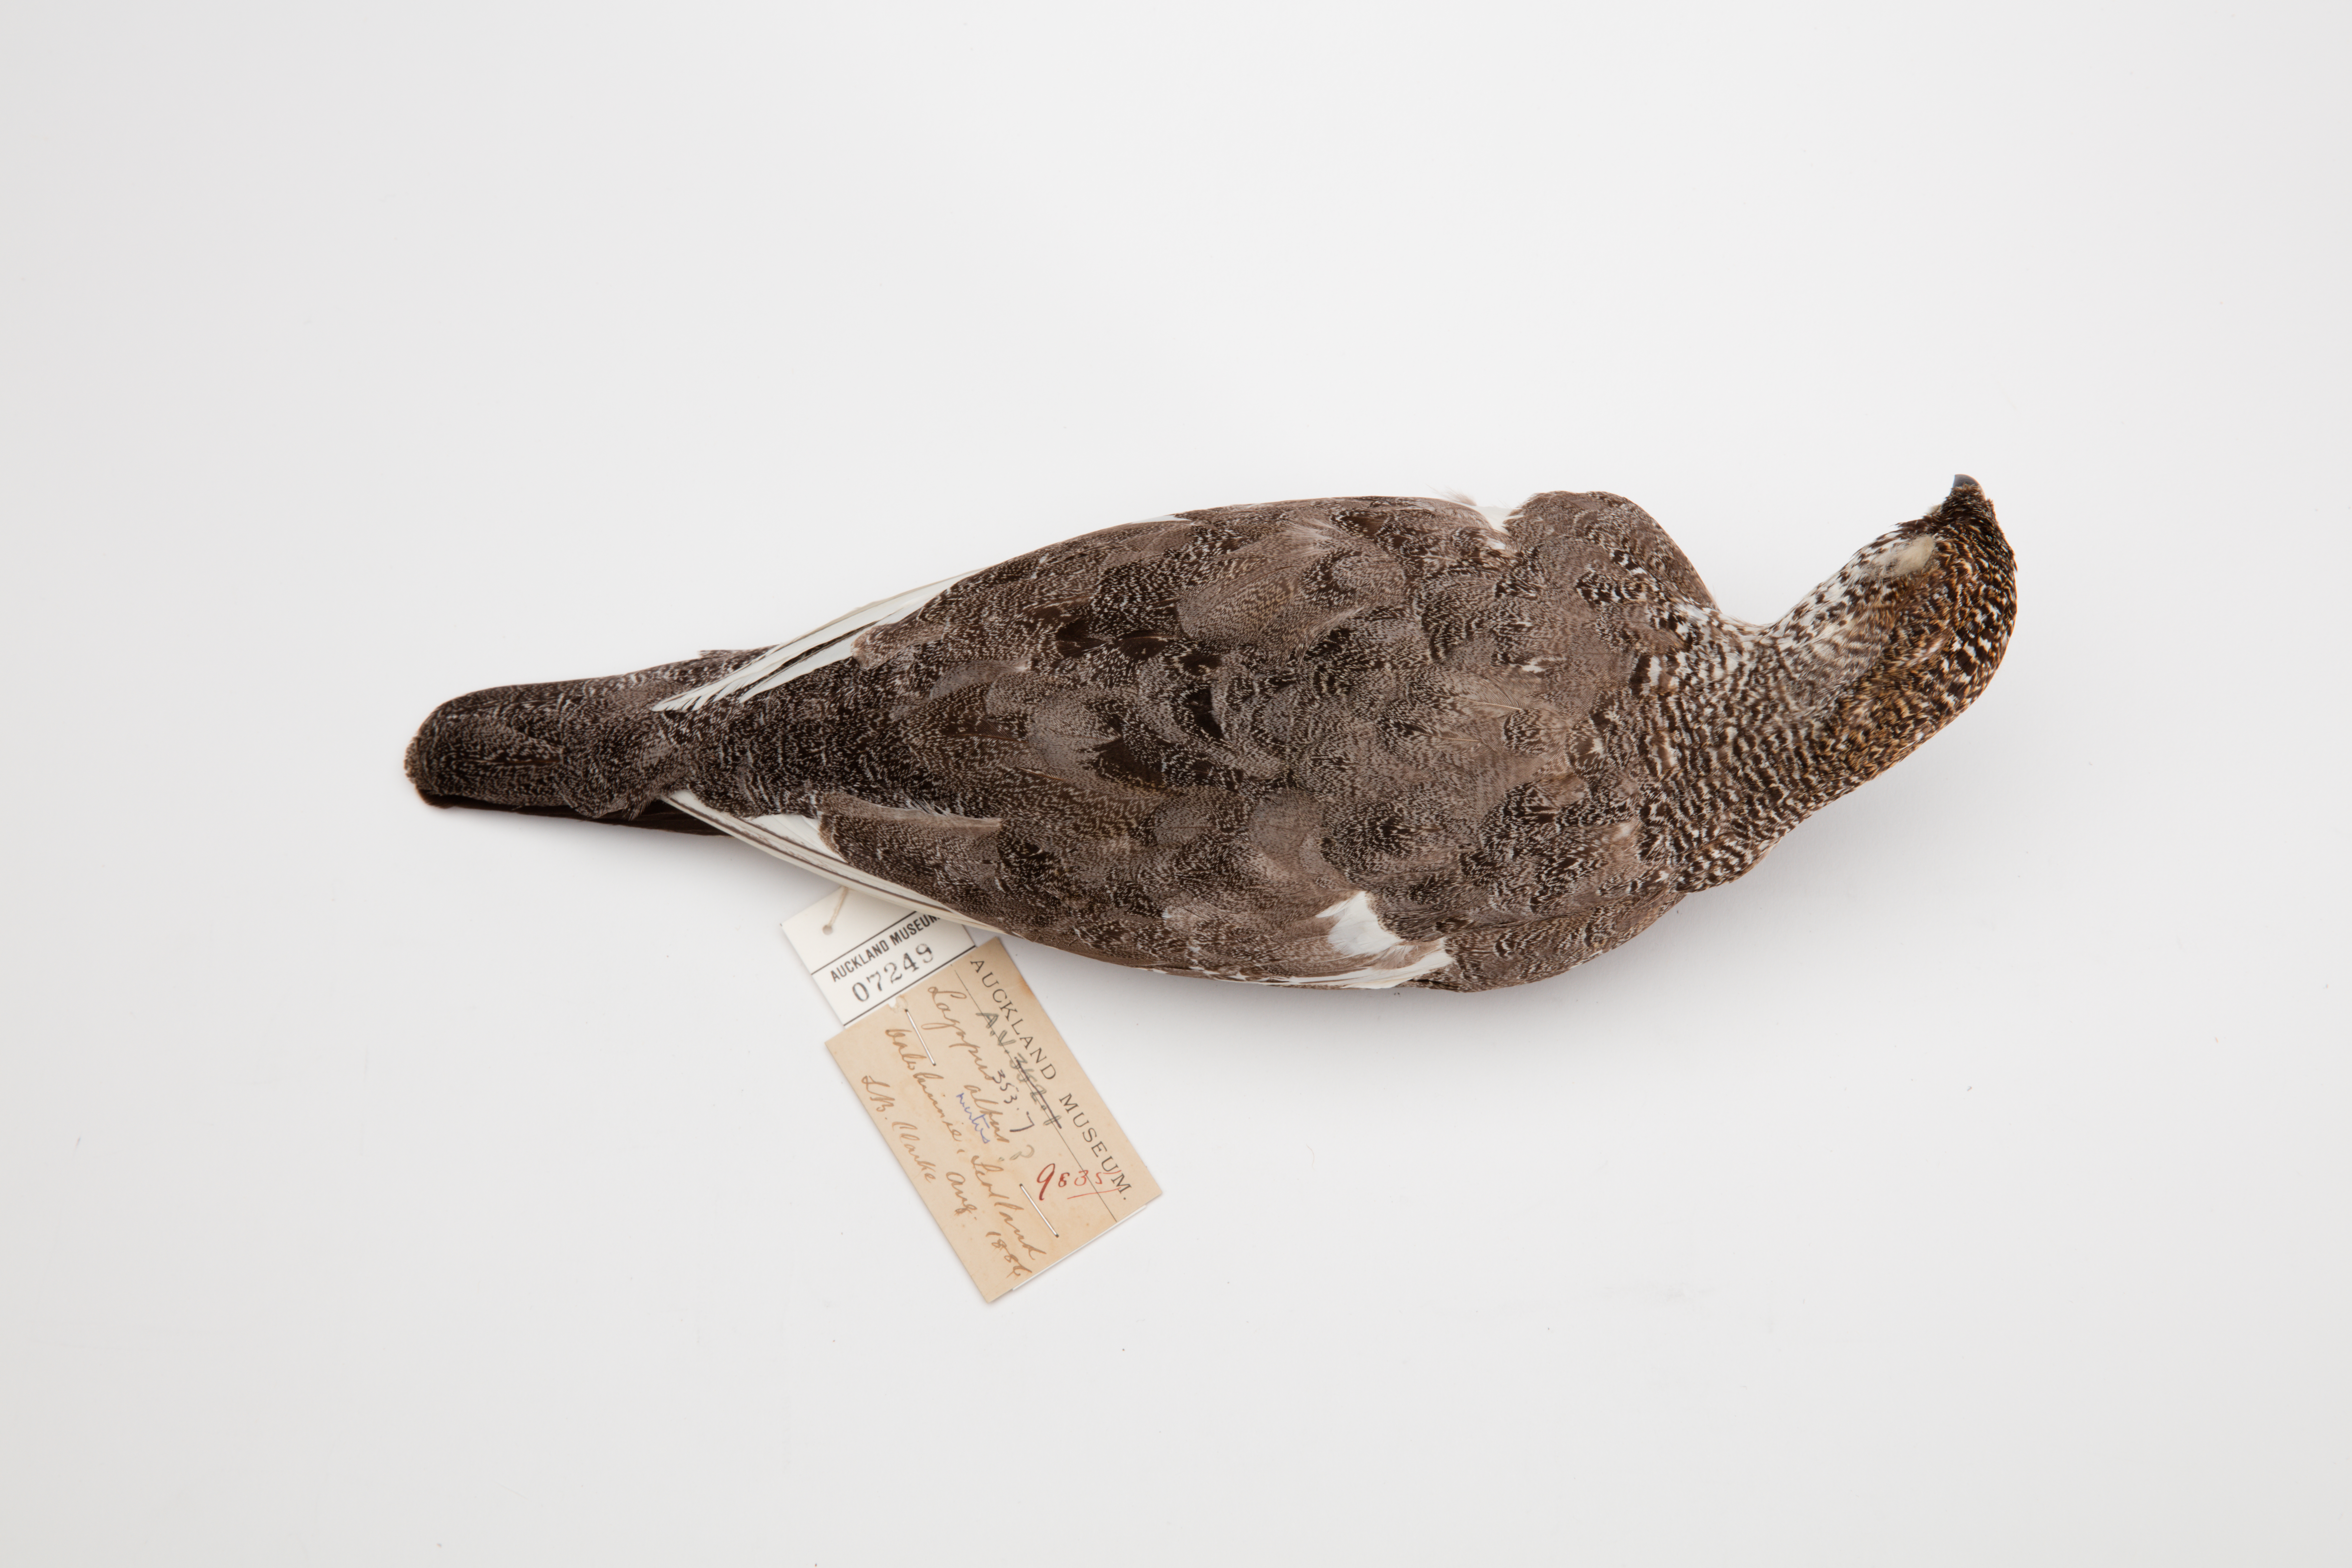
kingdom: Animalia
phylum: Chordata
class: Aves
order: Galliformes
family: Phasianidae
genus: Lagopus
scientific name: Lagopus muta
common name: Rock ptarmigan
